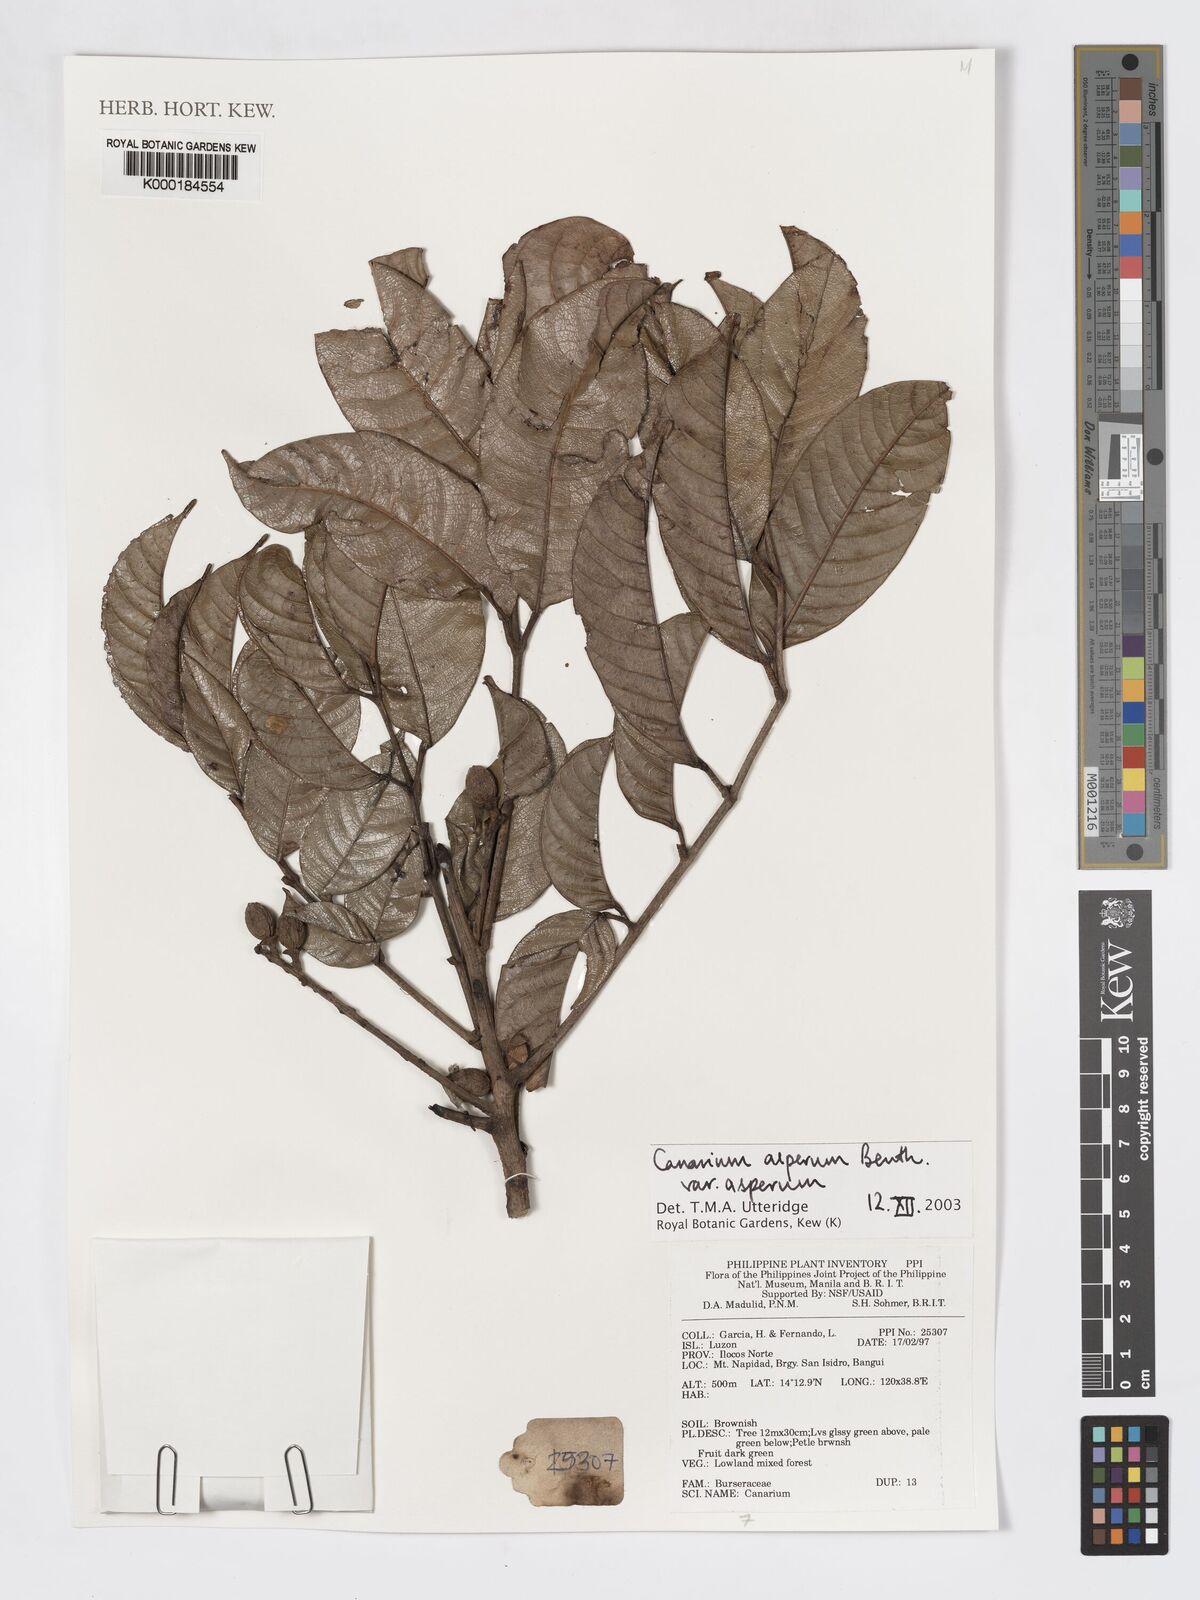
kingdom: Plantae
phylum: Tracheophyta
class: Magnoliopsida
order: Sapindales
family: Burseraceae
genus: Canarium
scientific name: Canarium asperum
